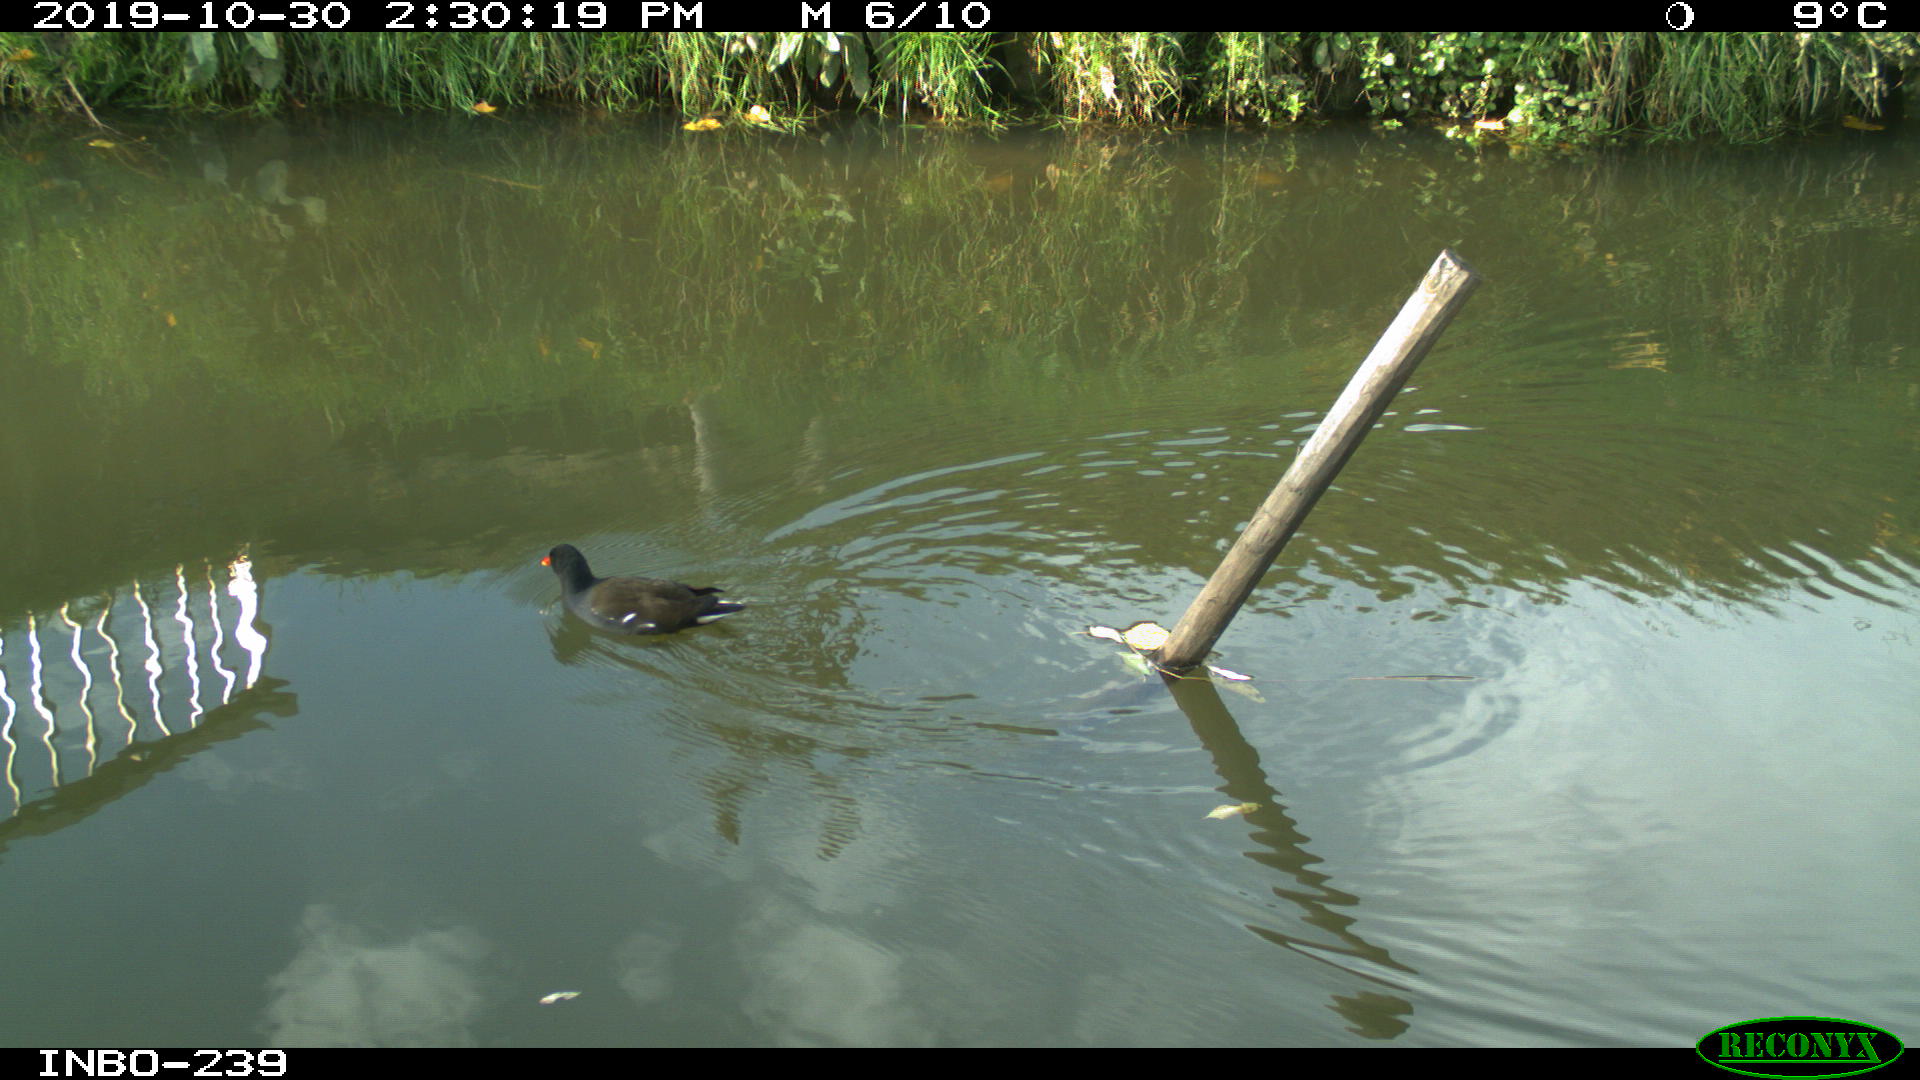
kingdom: Animalia
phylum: Chordata
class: Aves
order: Gruiformes
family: Rallidae
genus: Gallinula
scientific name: Gallinula chloropus
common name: Common moorhen
